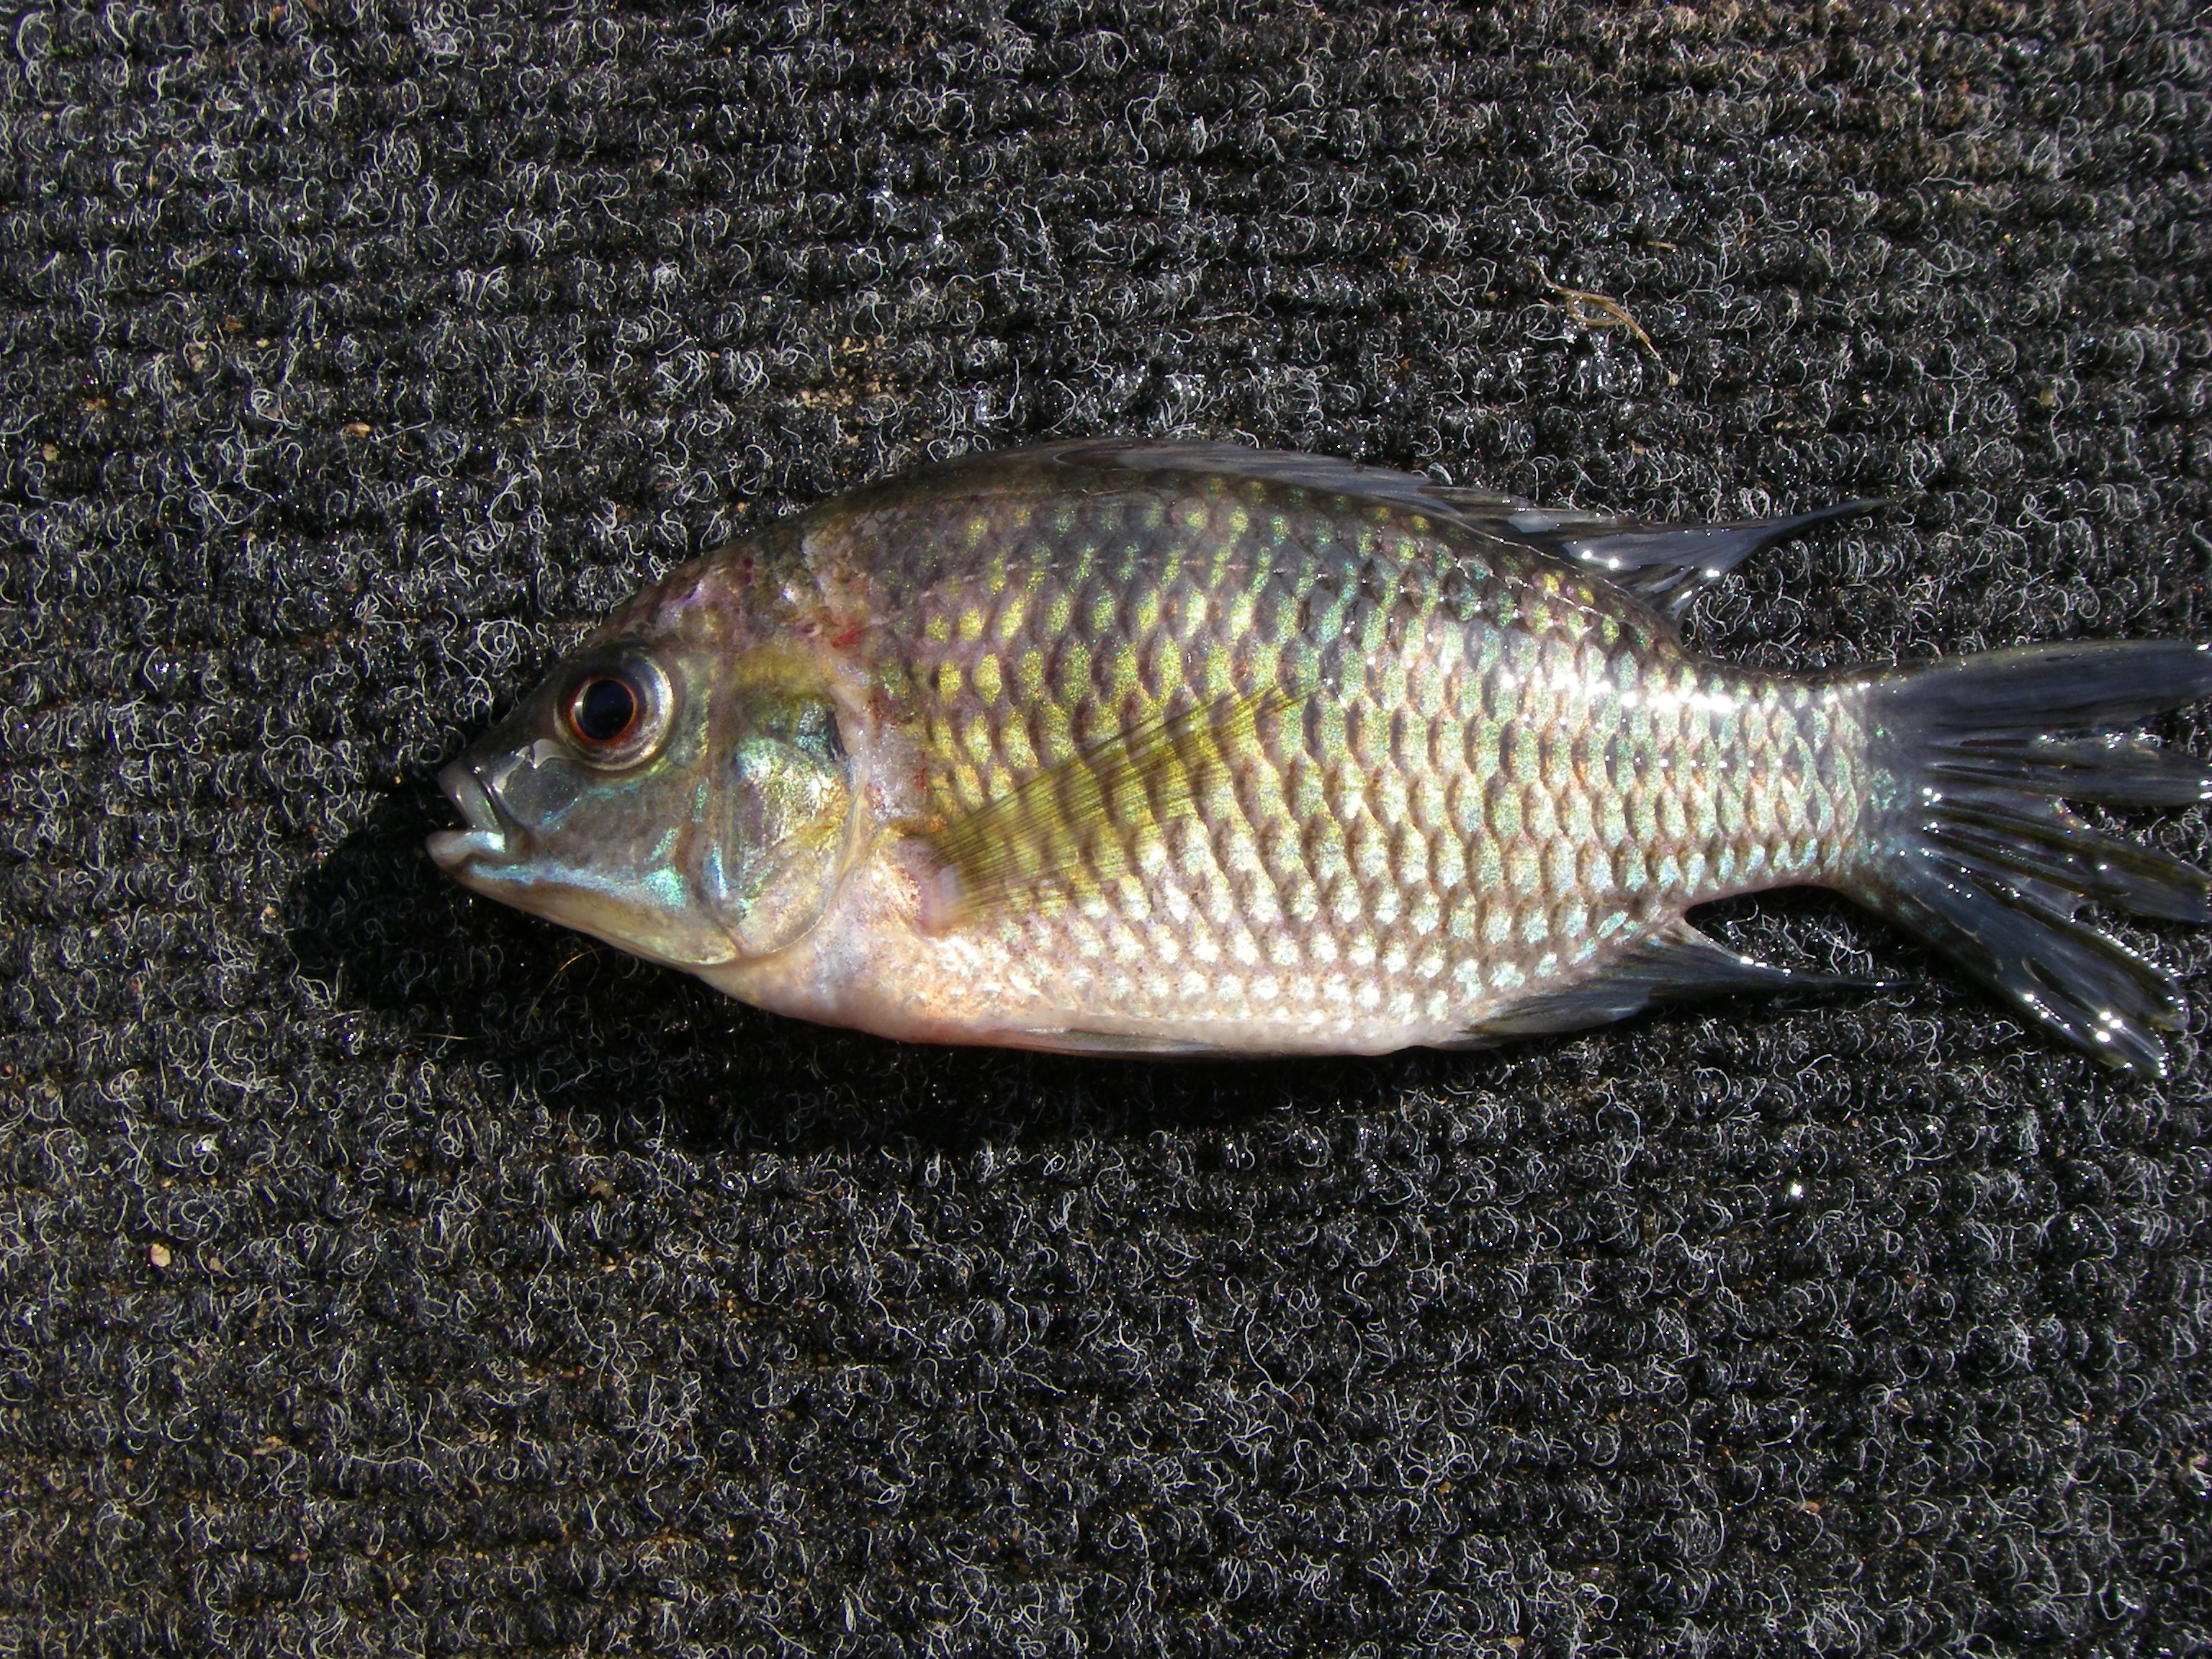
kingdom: Animalia
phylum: Chordata
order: Perciformes
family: Cichlidae
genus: Tilapia
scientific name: Tilapia sparrmanii
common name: Banded tilapia
